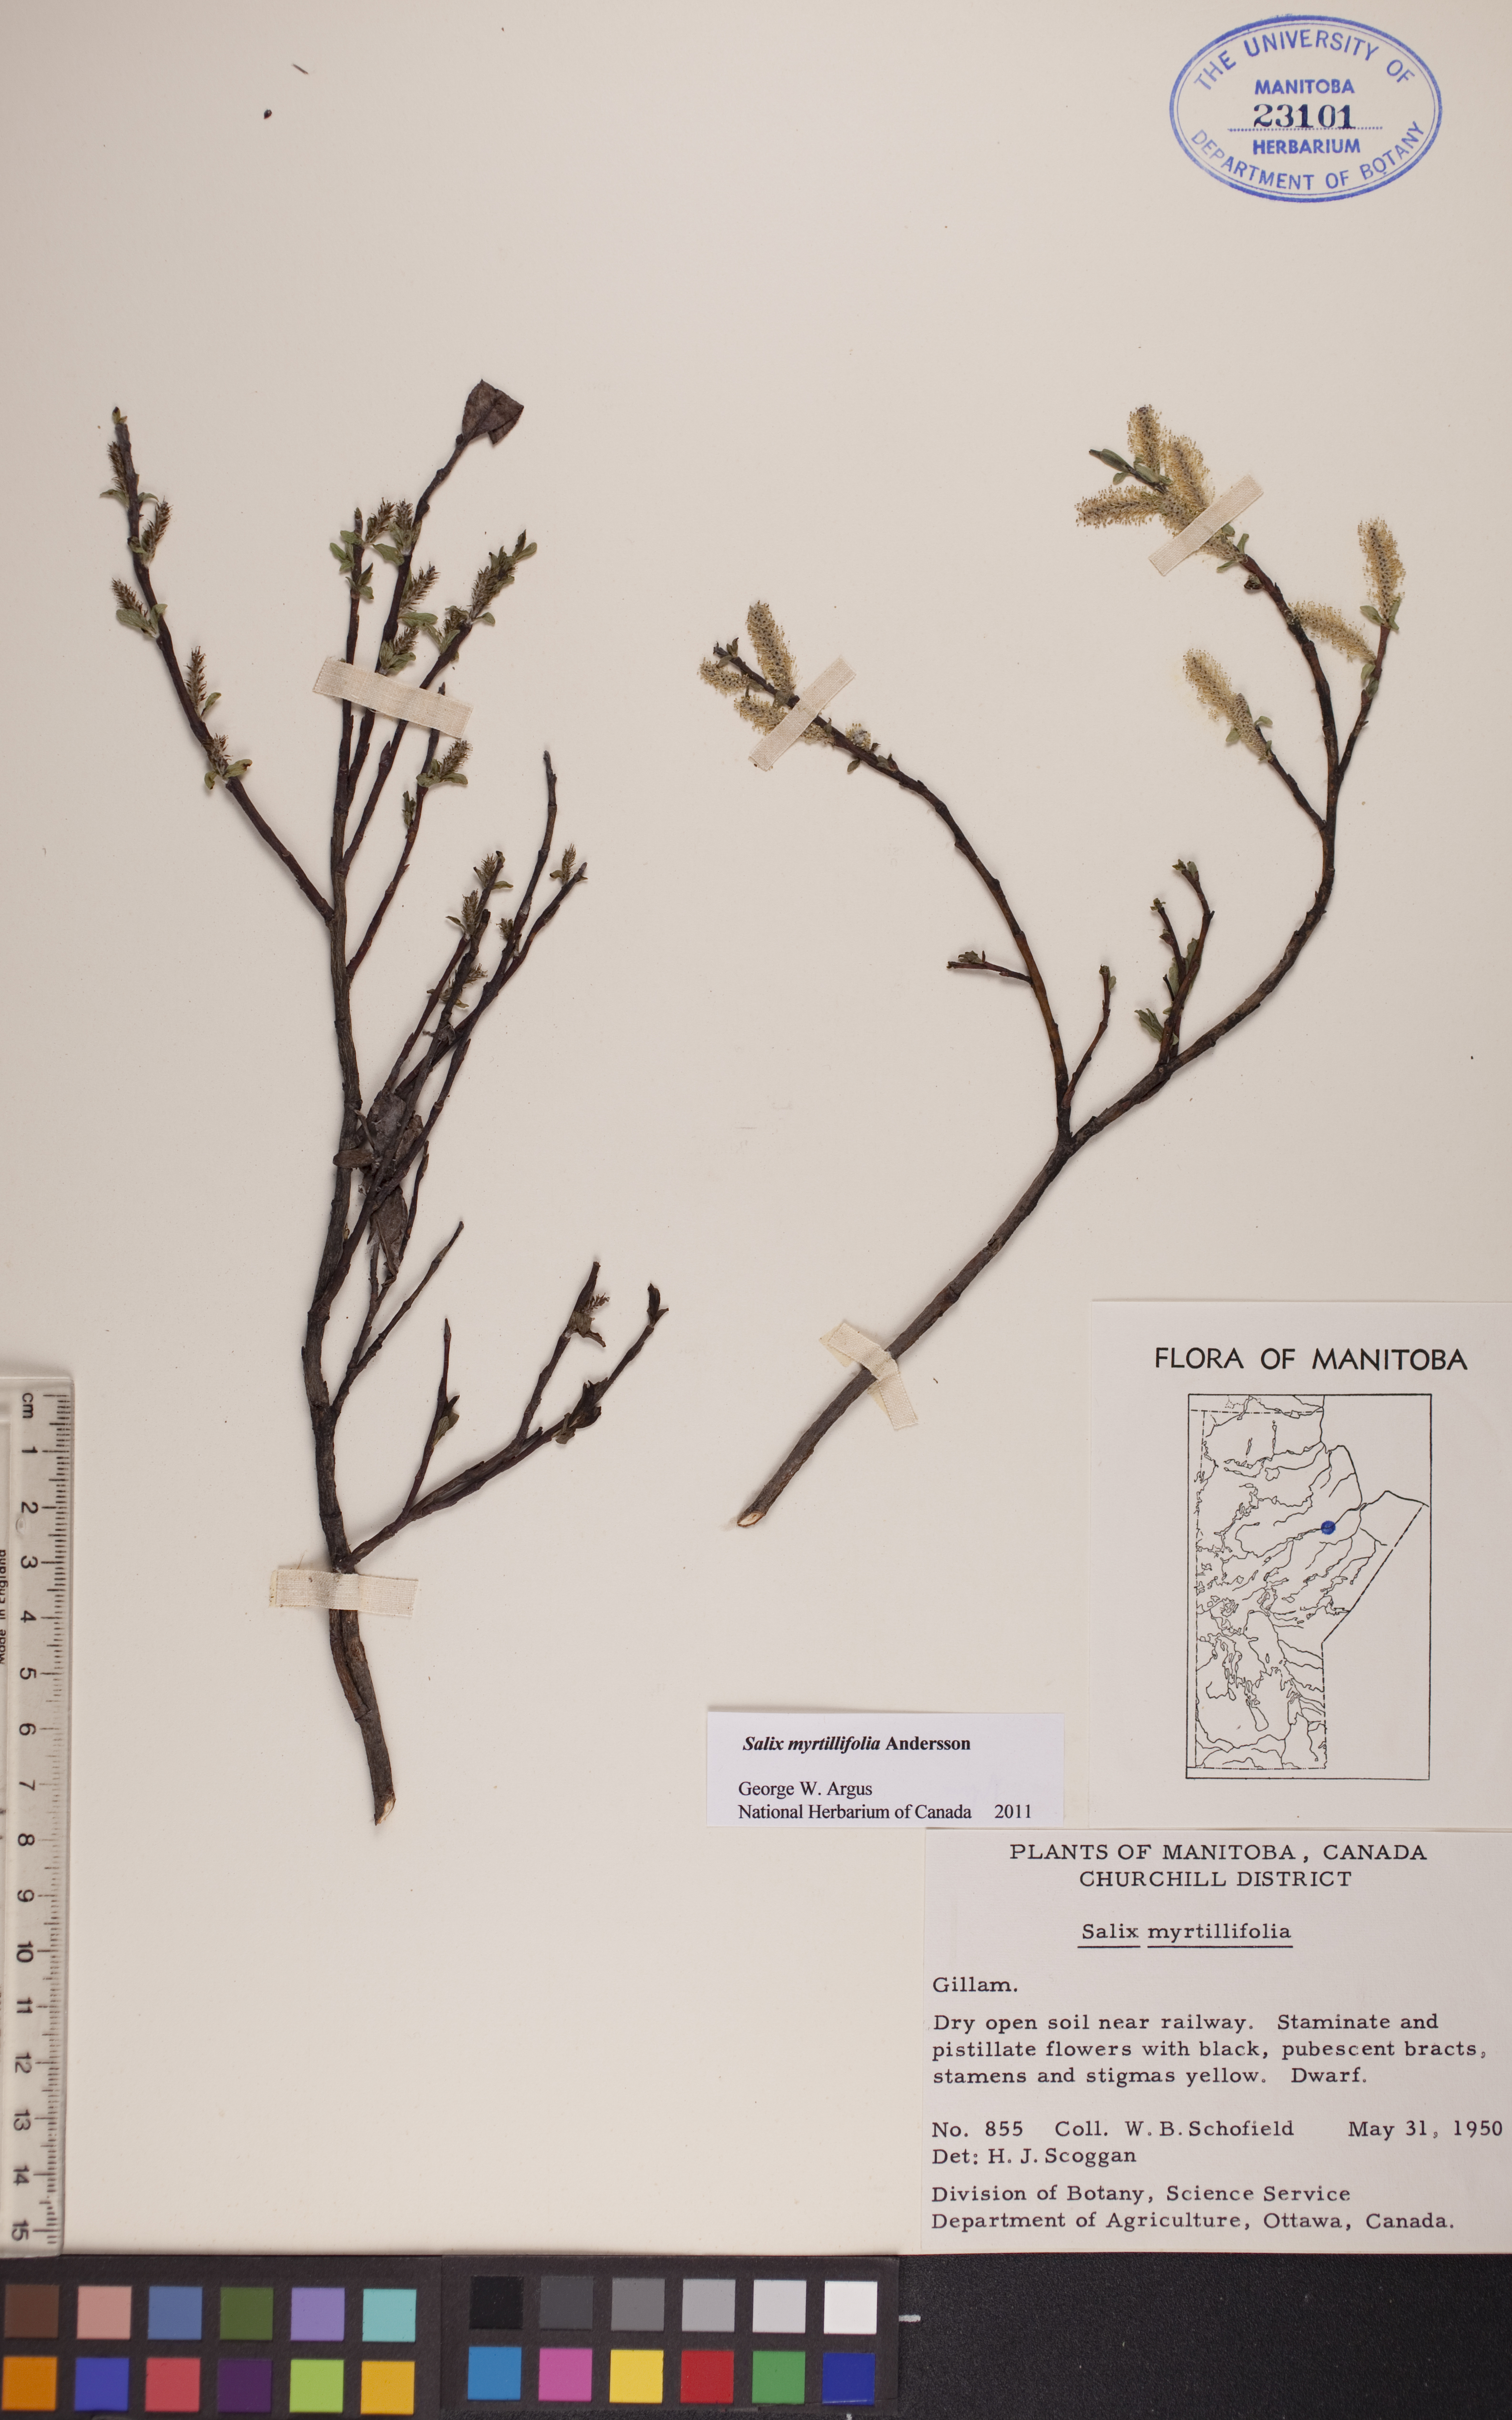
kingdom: Plantae
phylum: Tracheophyta
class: Magnoliopsida
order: Malpighiales
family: Salicaceae
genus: Salix
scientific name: Salix myrtillifolia
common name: Bilberry willow
